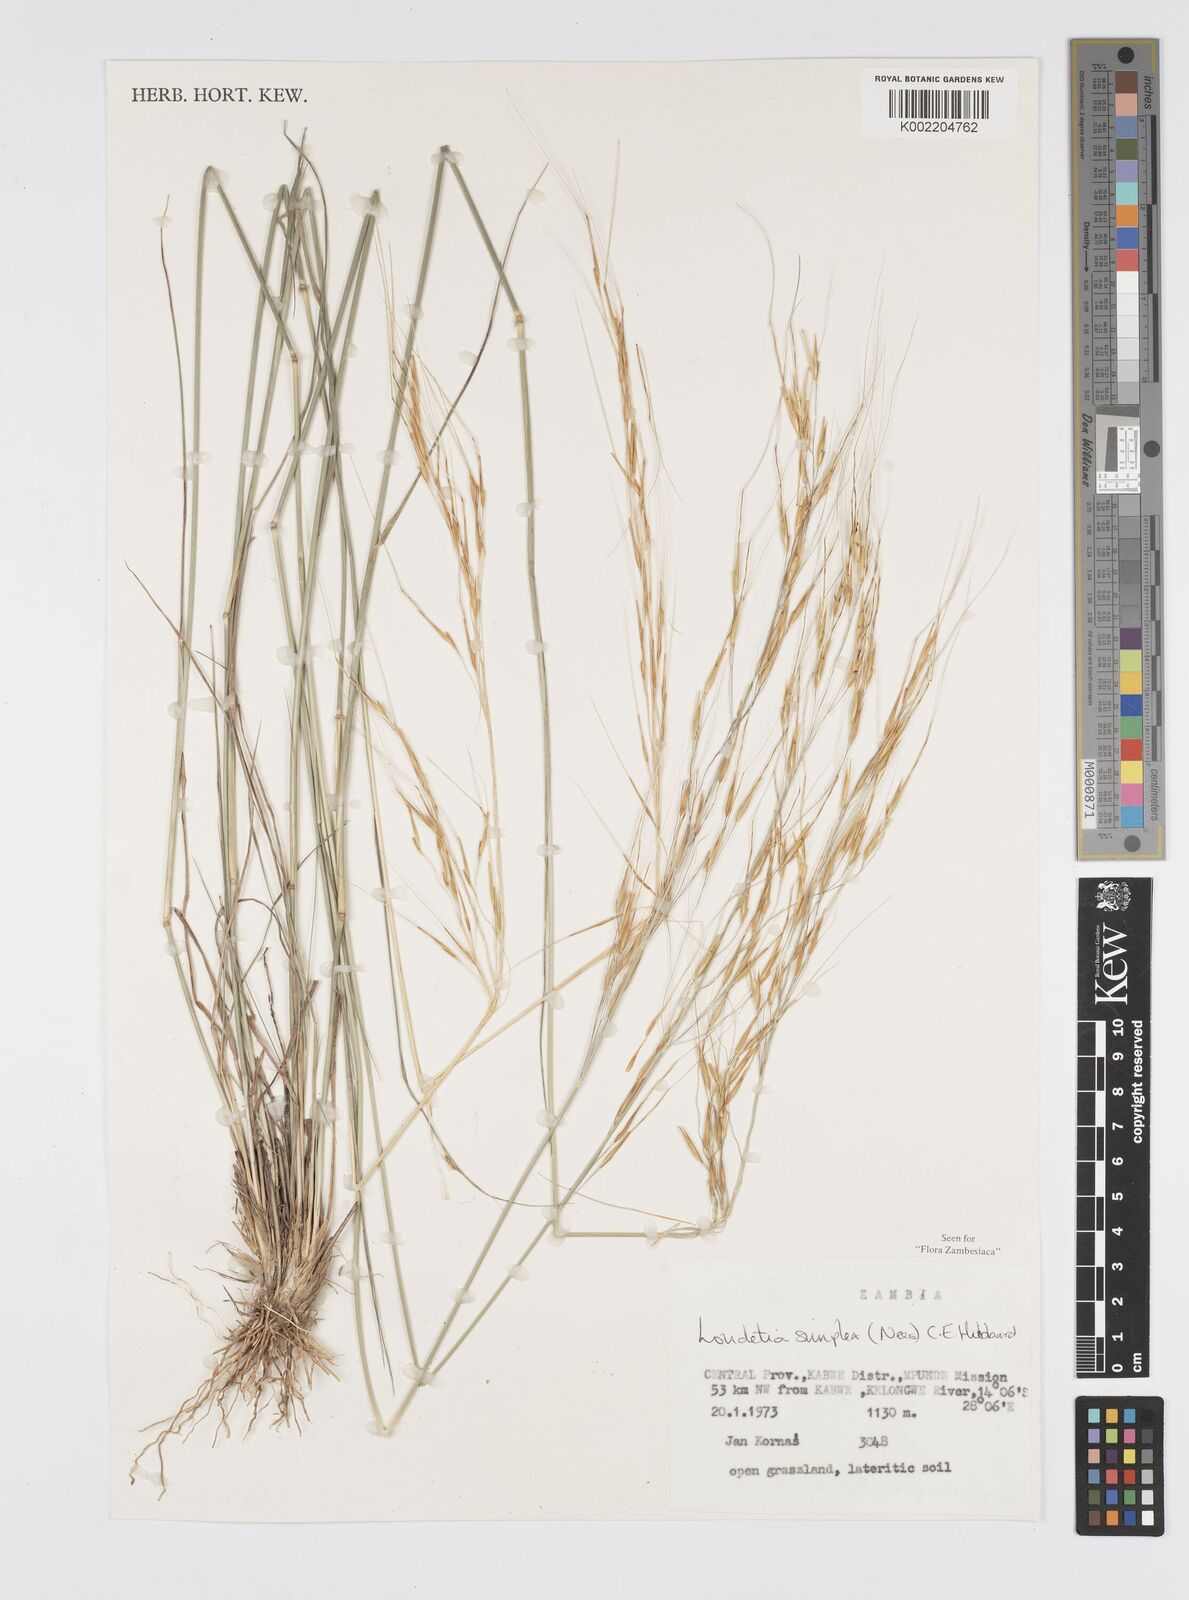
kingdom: Plantae
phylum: Tracheophyta
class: Liliopsida
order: Poales
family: Poaceae
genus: Loudetia
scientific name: Loudetia simplex
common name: Common russet grass
